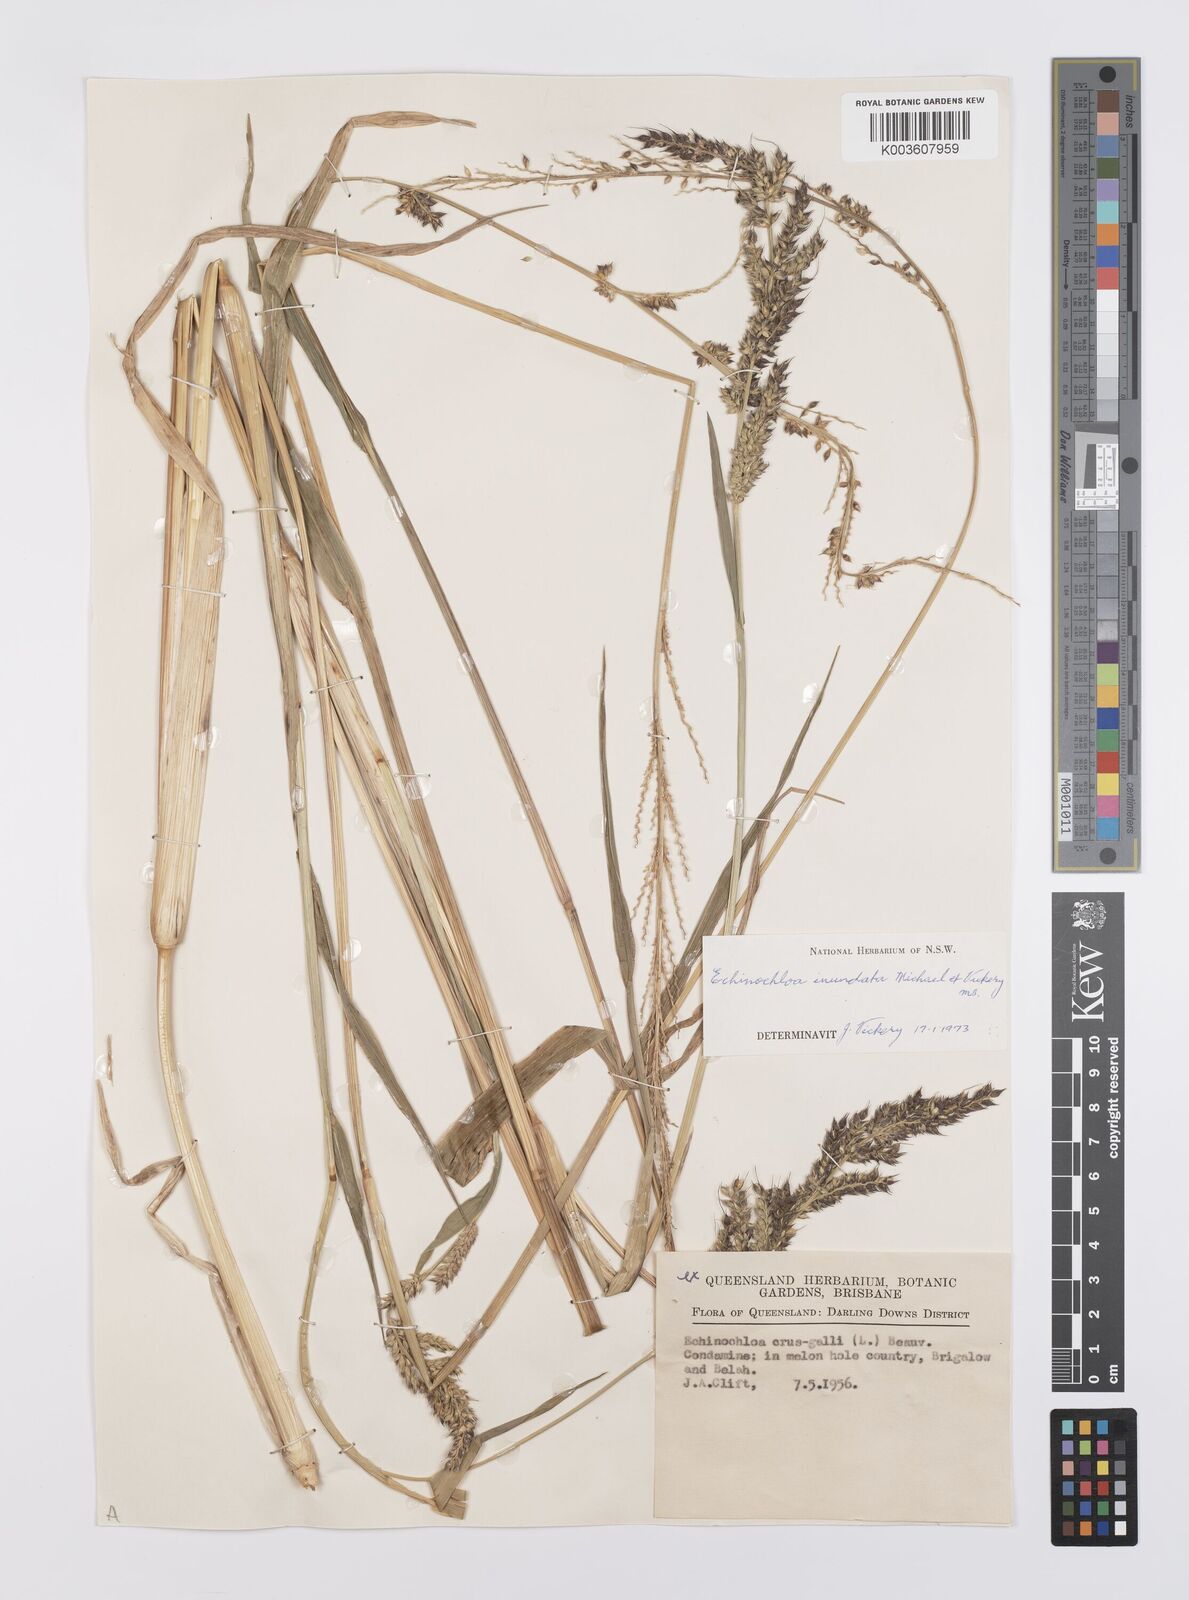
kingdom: Plantae
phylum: Tracheophyta
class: Liliopsida
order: Poales
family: Poaceae
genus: Echinochloa
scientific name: Echinochloa crus-galli
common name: Cockspur
